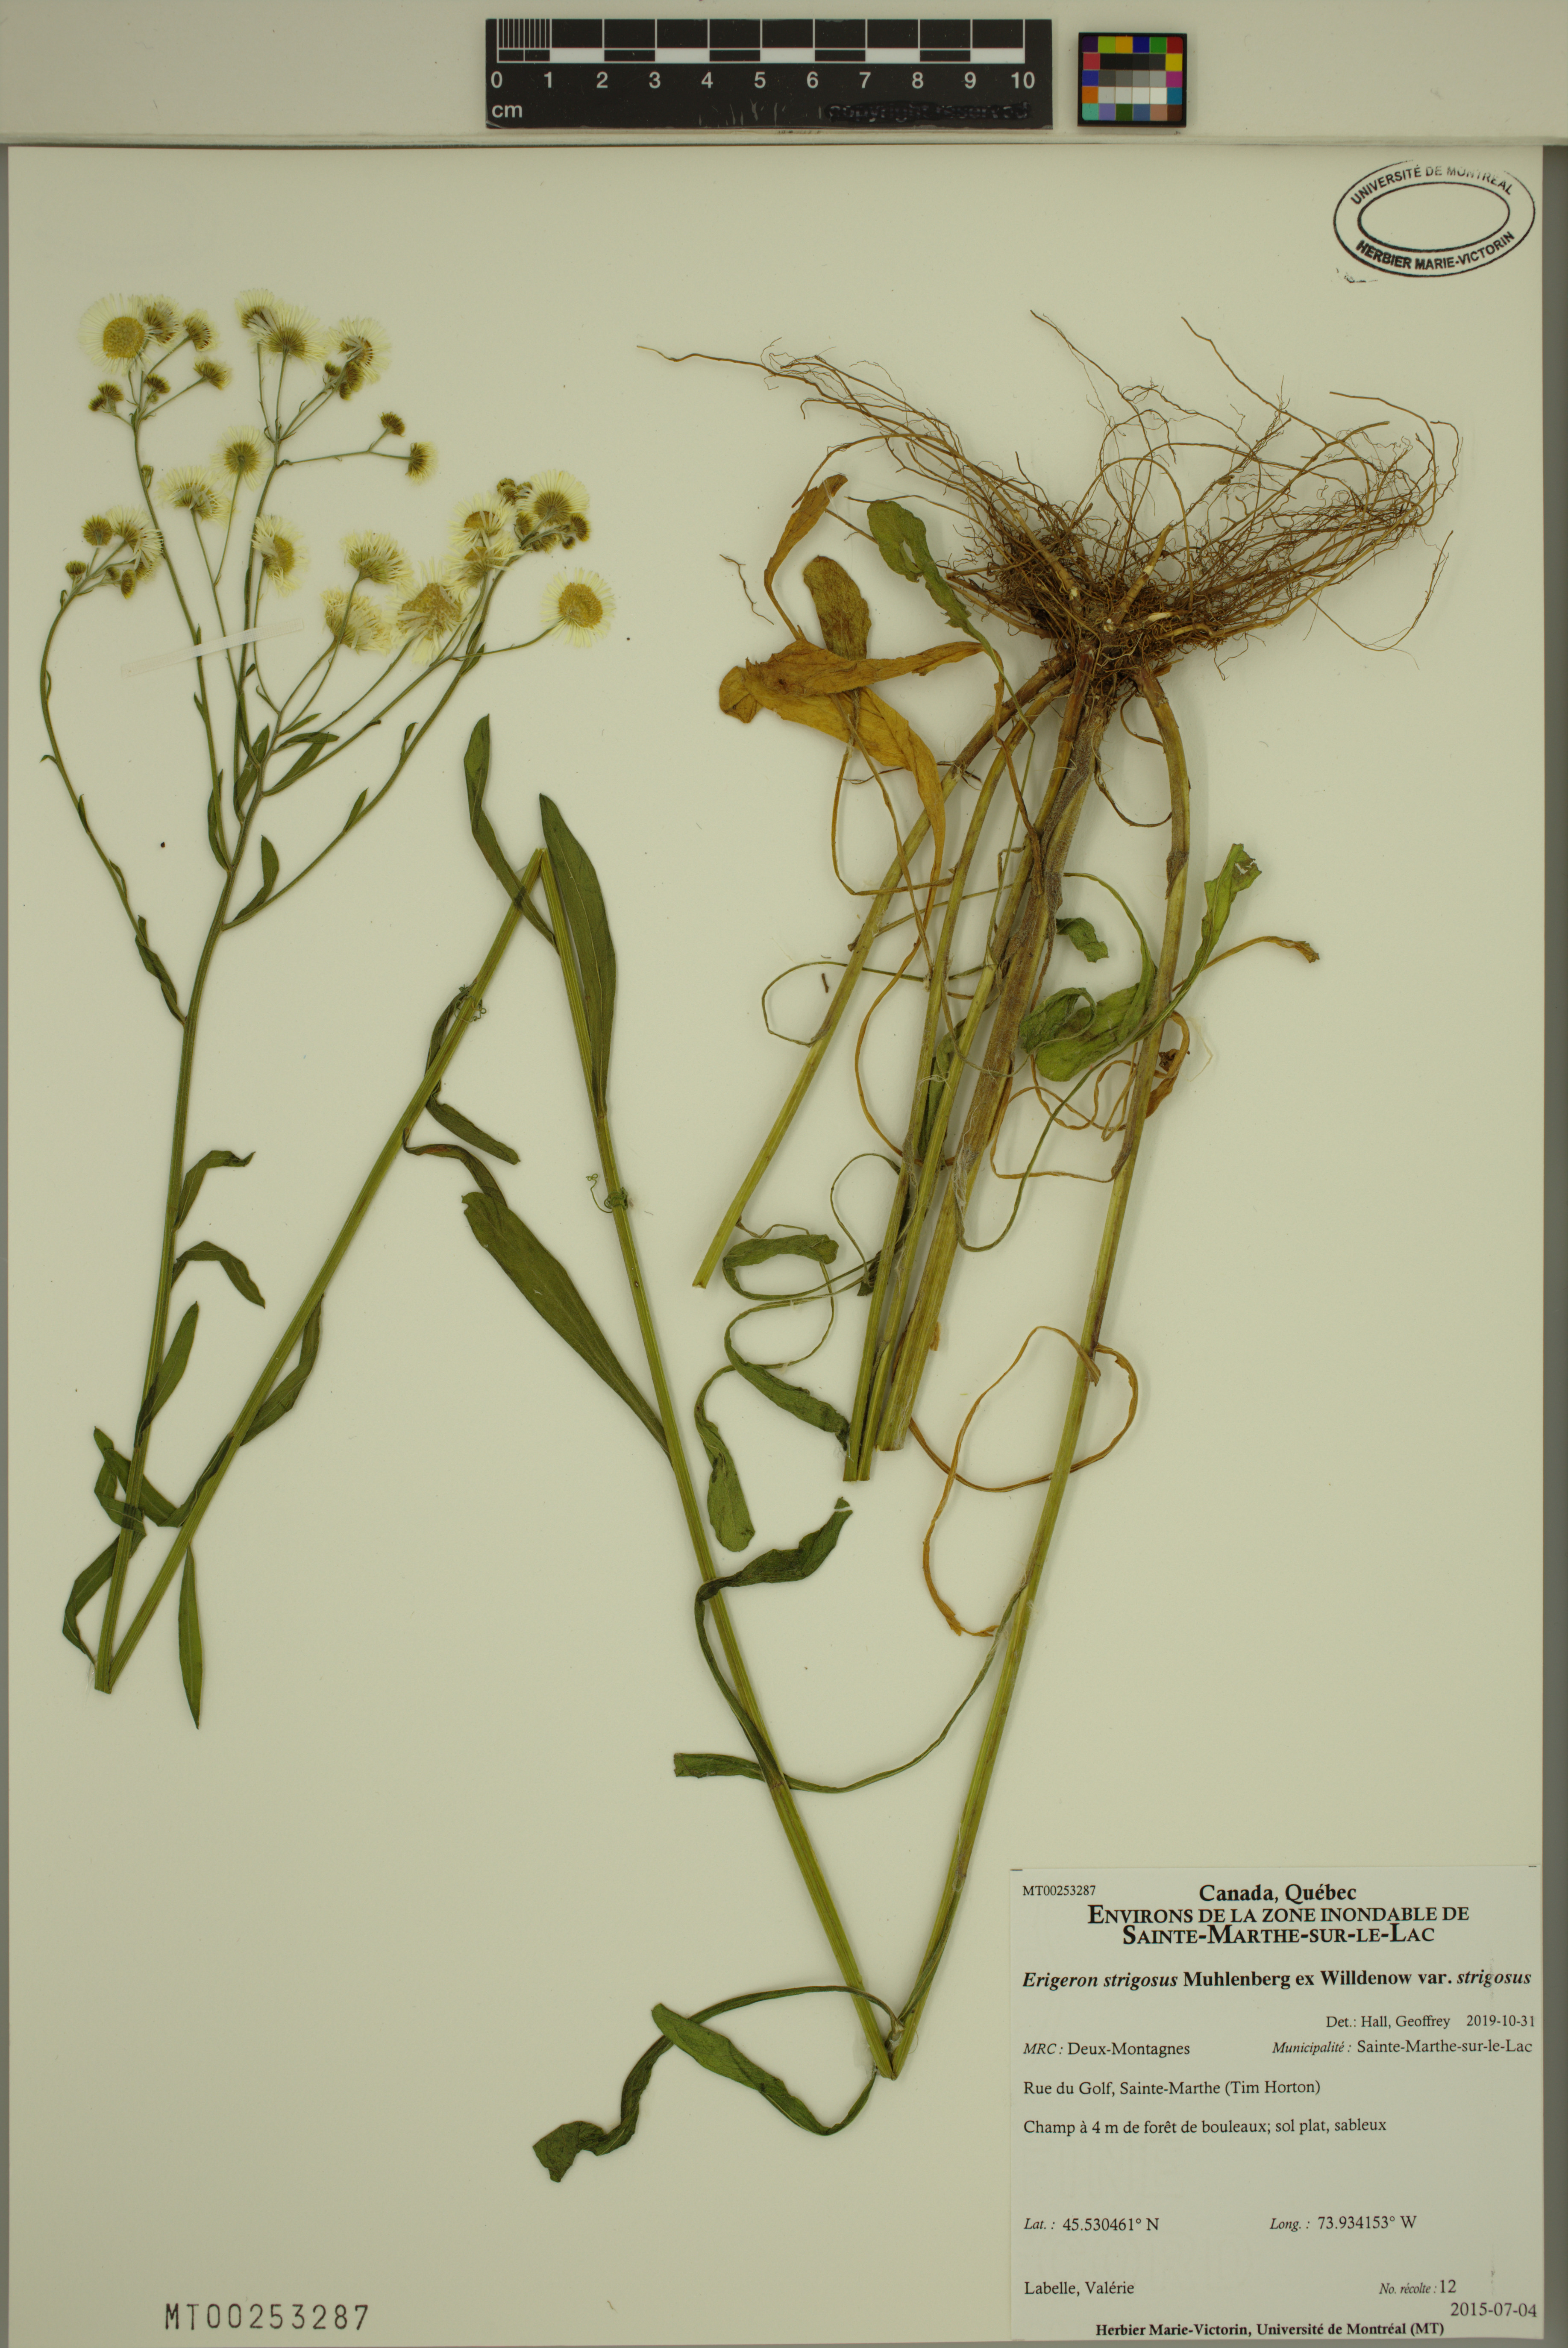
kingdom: Plantae
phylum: Tracheophyta
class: Magnoliopsida
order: Asterales
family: Asteraceae
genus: Erigeron
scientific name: Erigeron strigosus
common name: Common eastern fleabane
